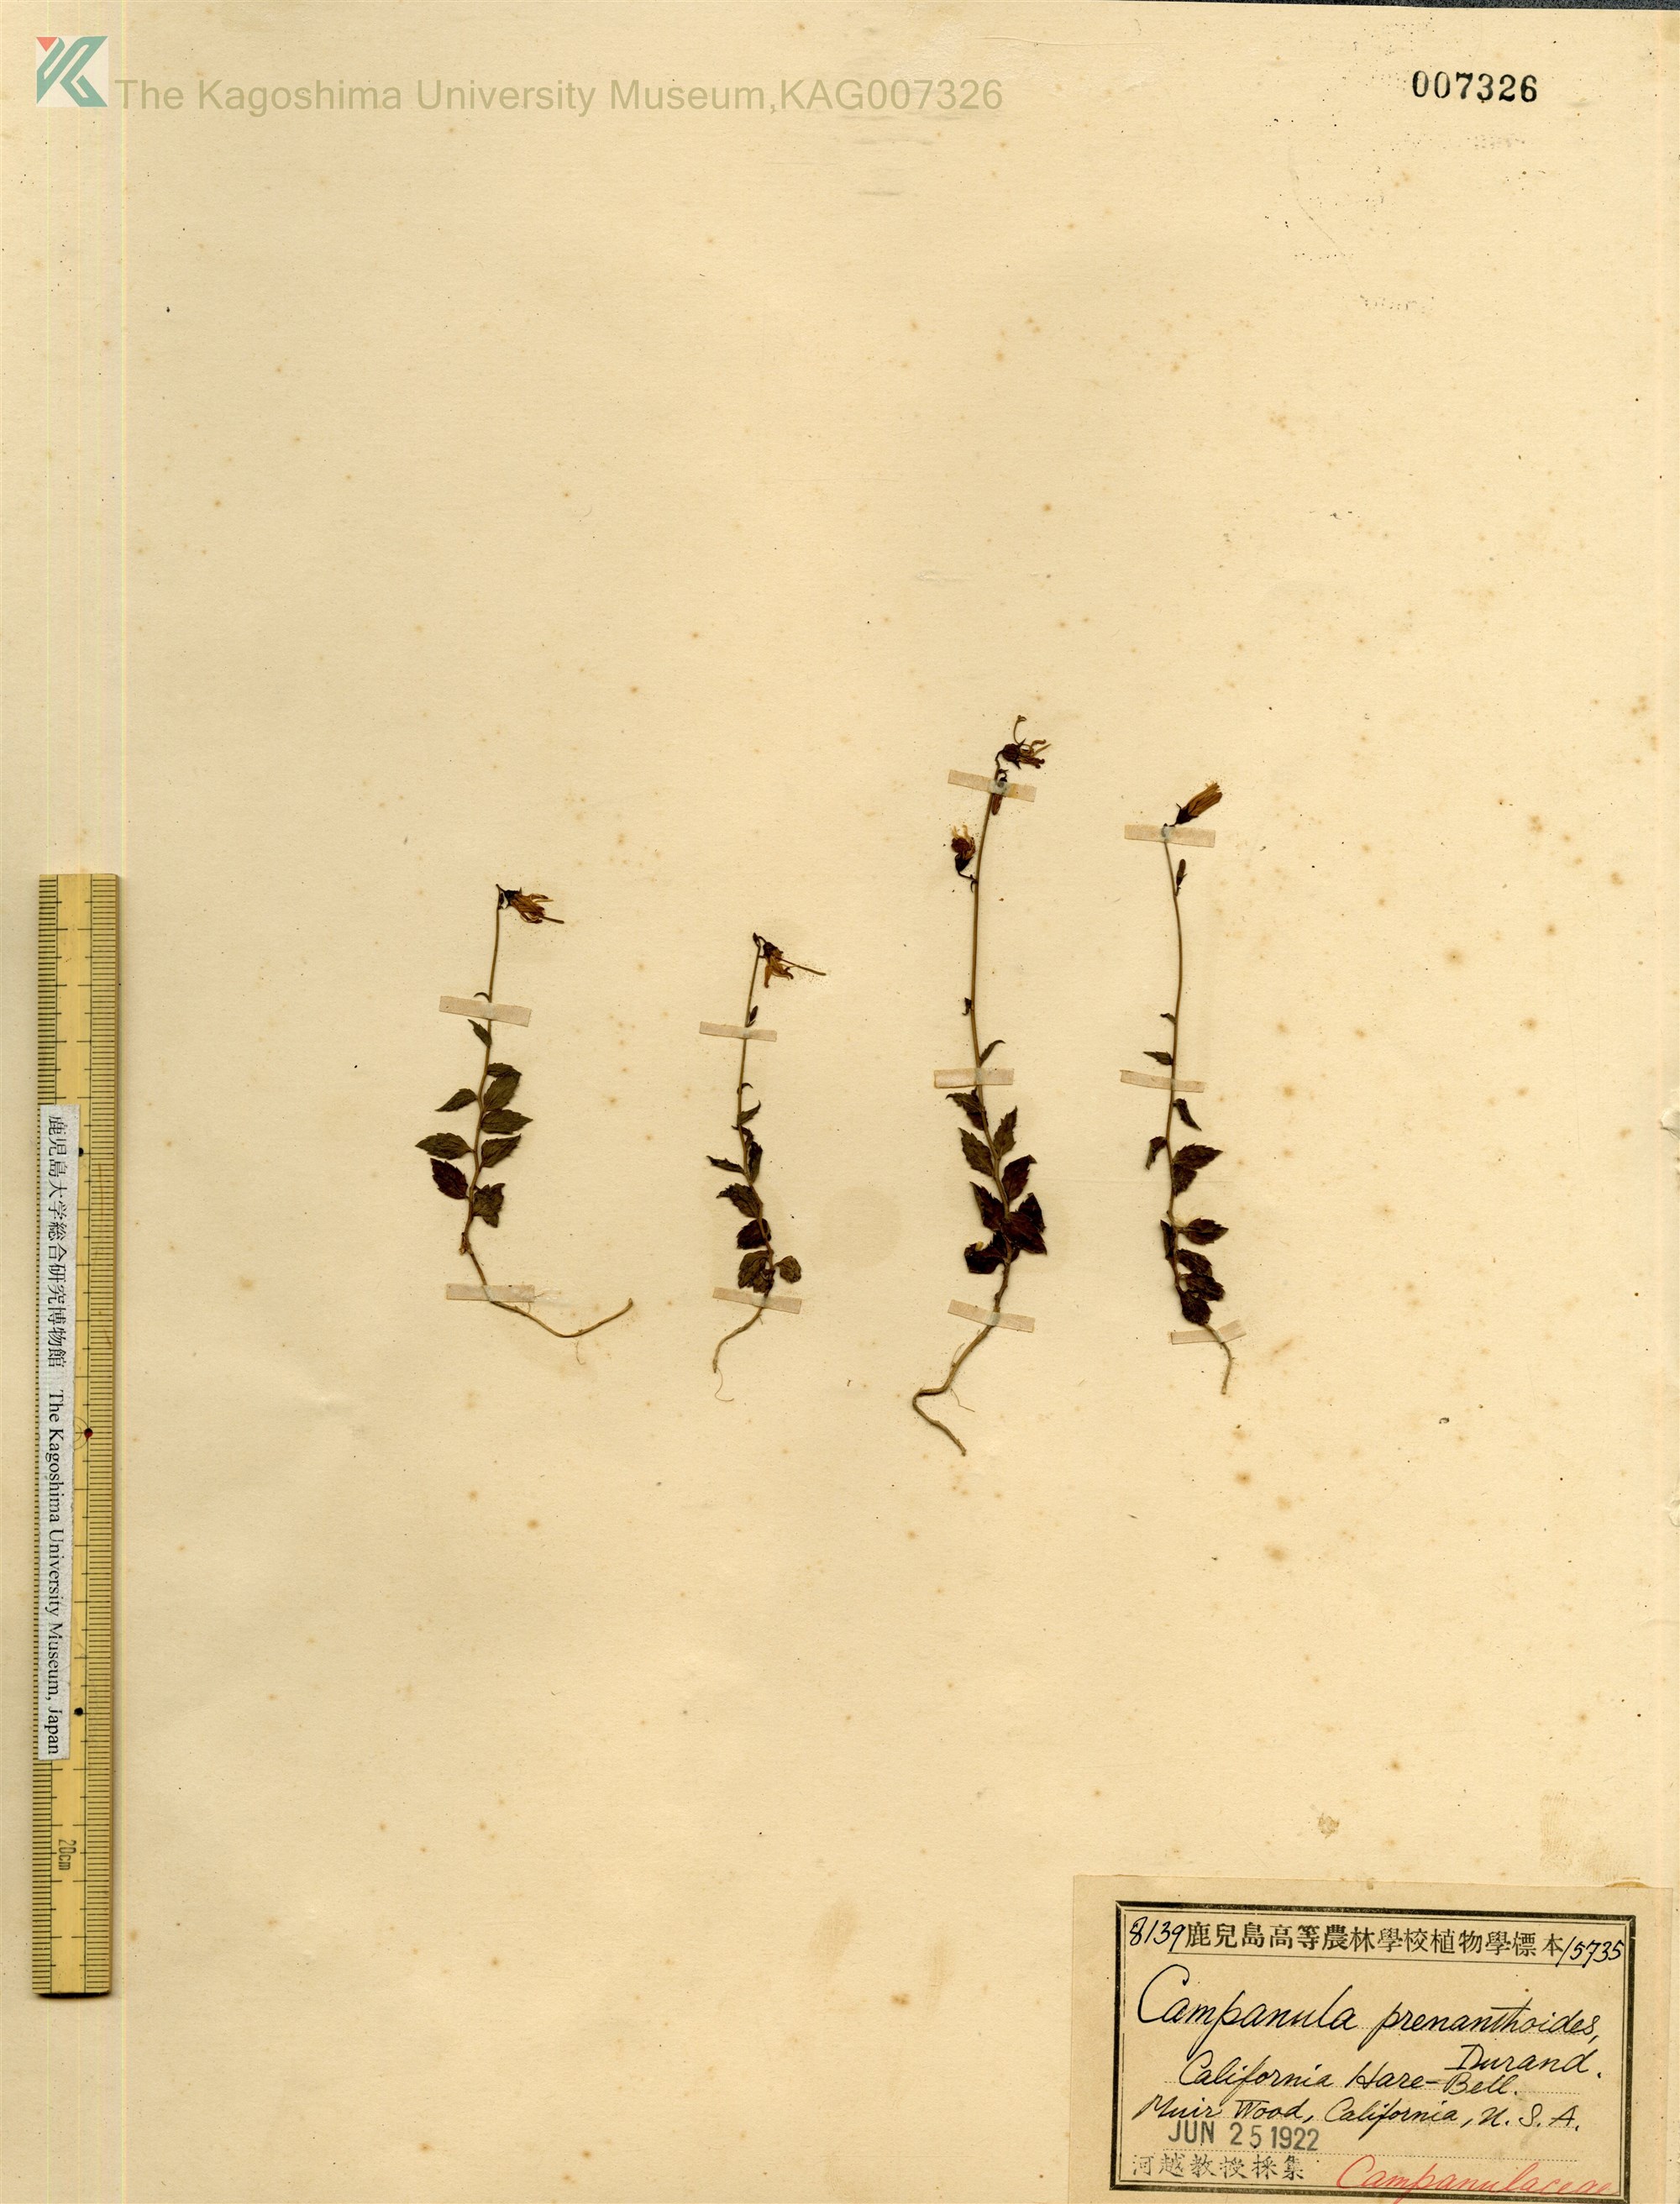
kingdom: Plantae
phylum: Tracheophyta
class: Magnoliopsida
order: Asterales
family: Campanulaceae
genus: Smithiastrum
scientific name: Smithiastrum prenanthoides
